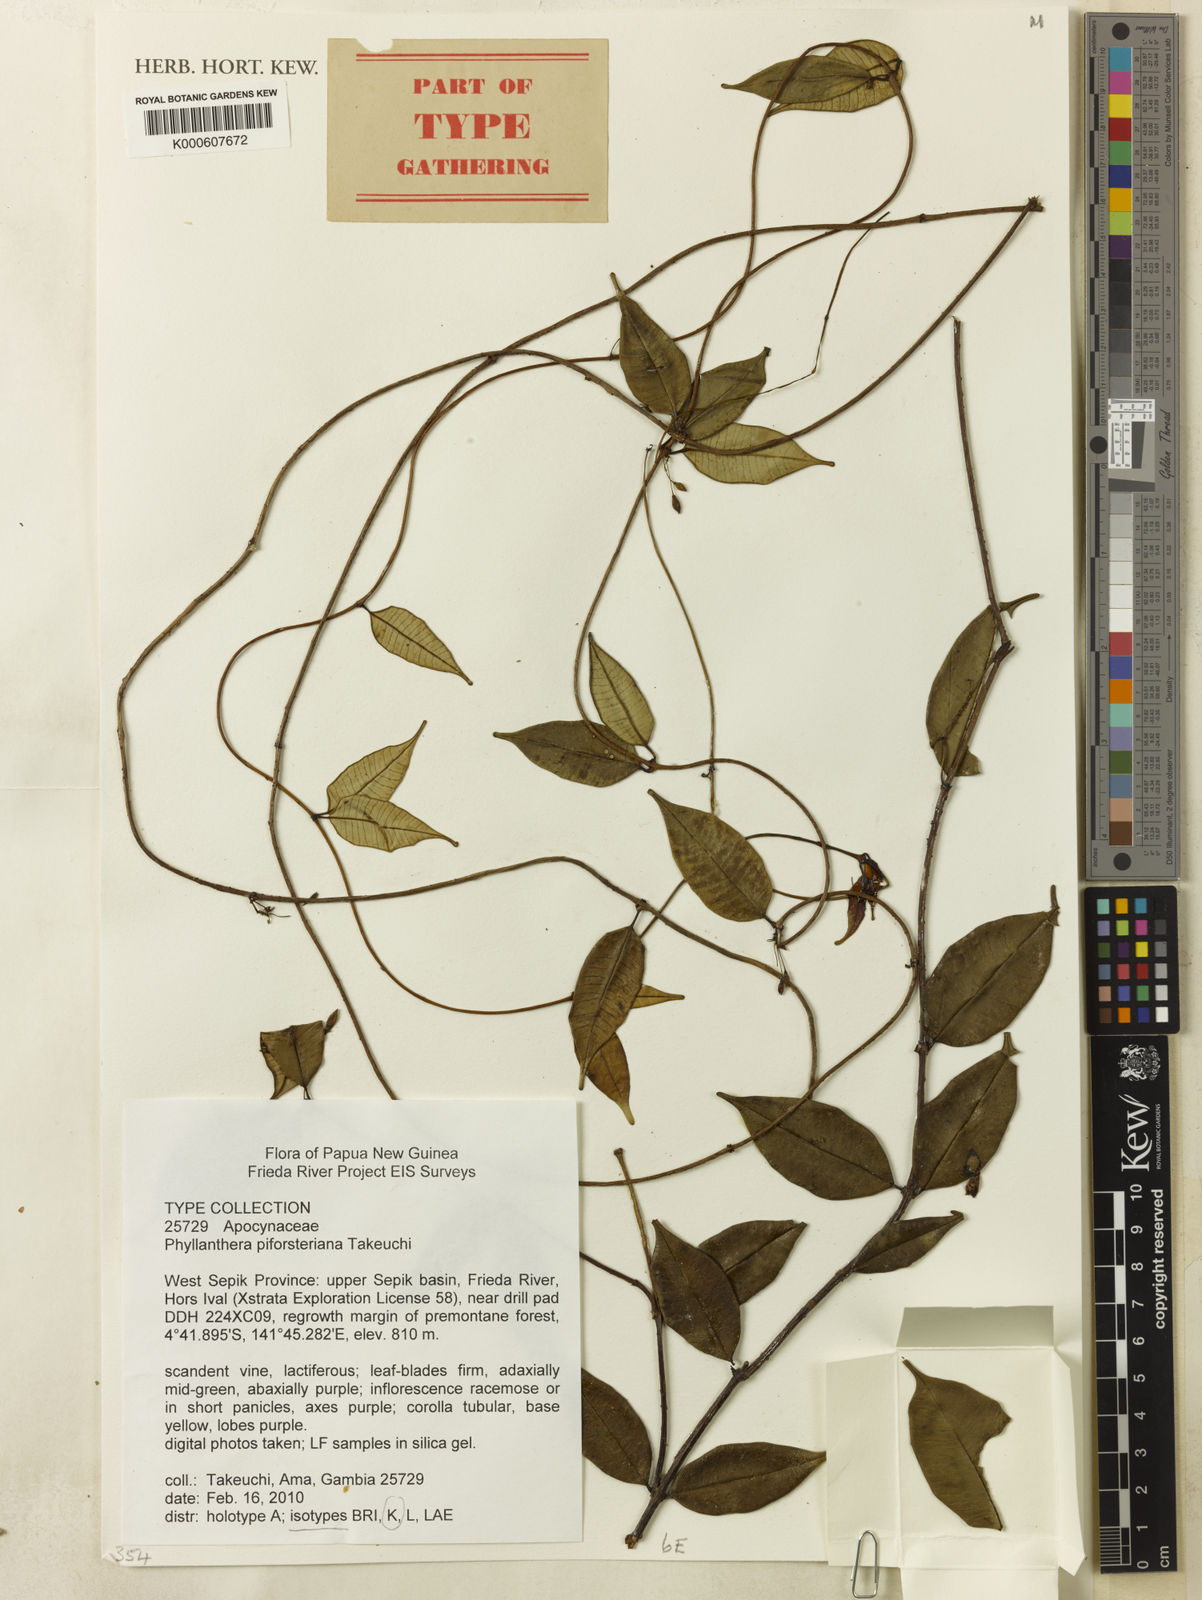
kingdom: Plantae
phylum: Tracheophyta
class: Magnoliopsida
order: Gentianales
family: Apocynaceae
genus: Phyllanthera
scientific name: Phyllanthera piforsteriana
